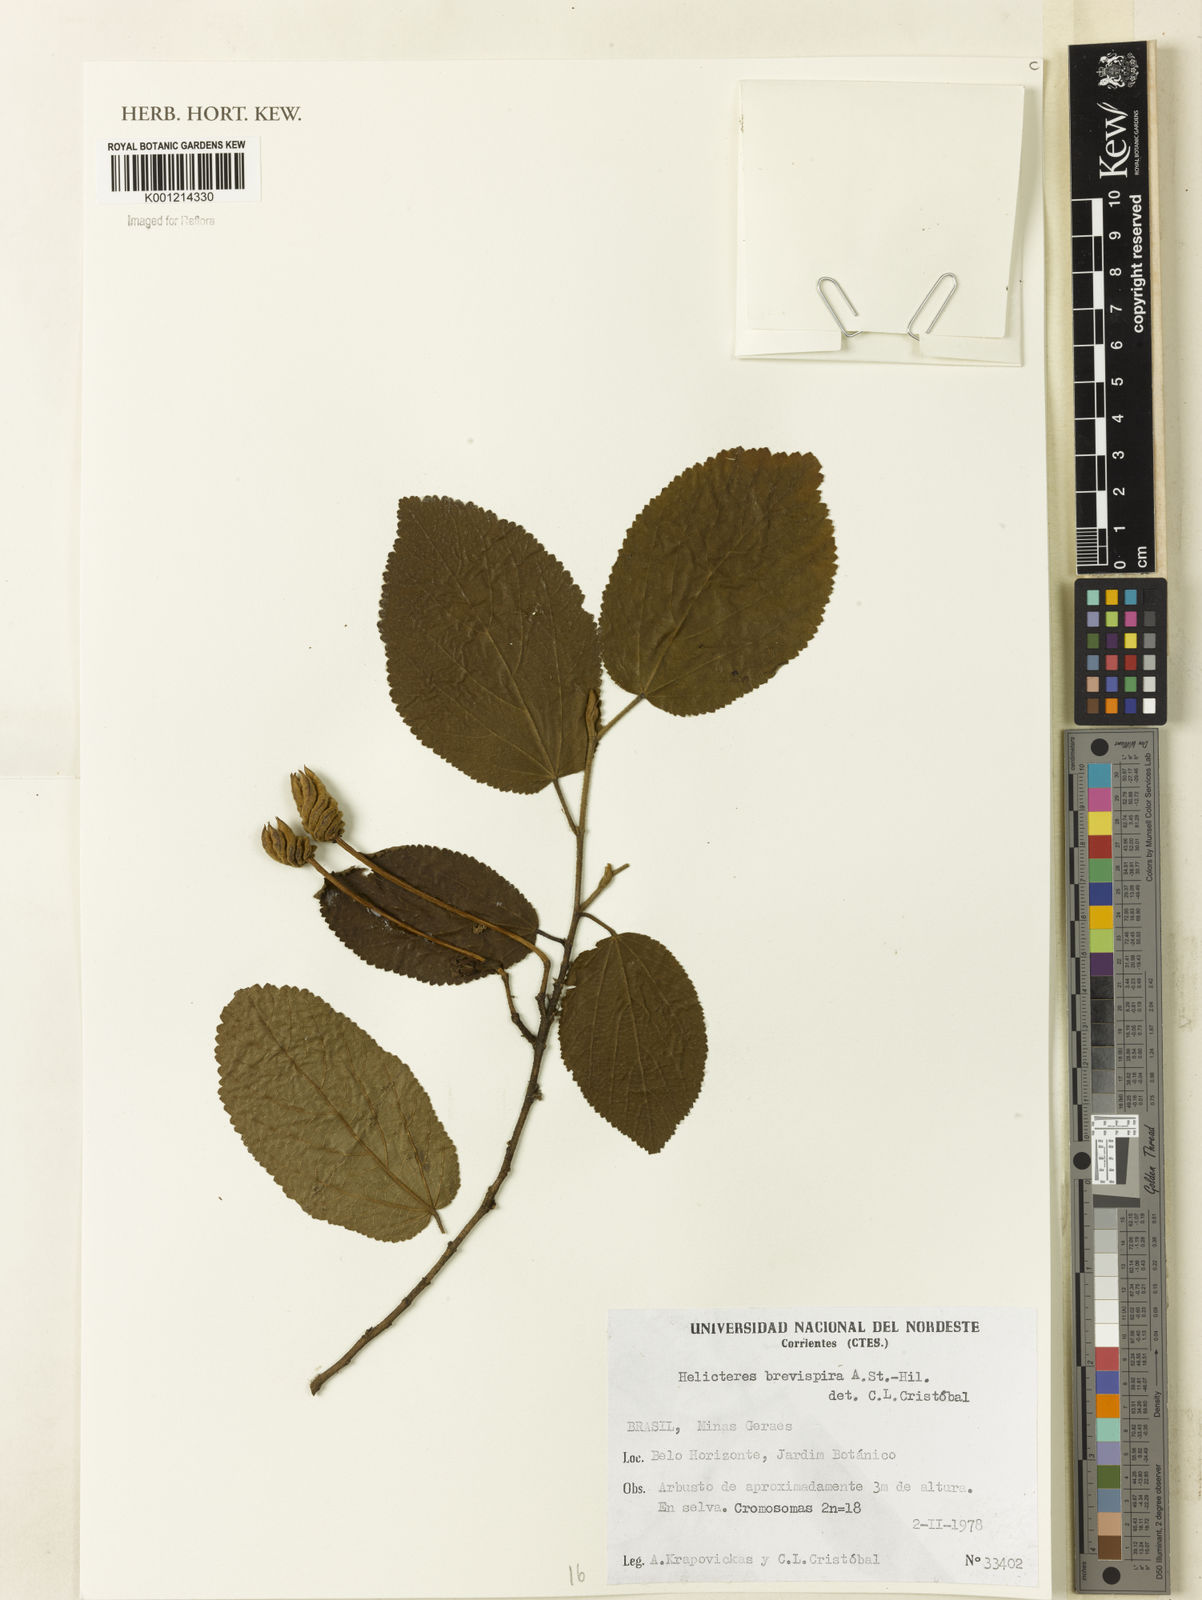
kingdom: Plantae
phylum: Tracheophyta
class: Magnoliopsida
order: Malvales
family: Malvaceae
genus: Helicteres
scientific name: Helicteres
